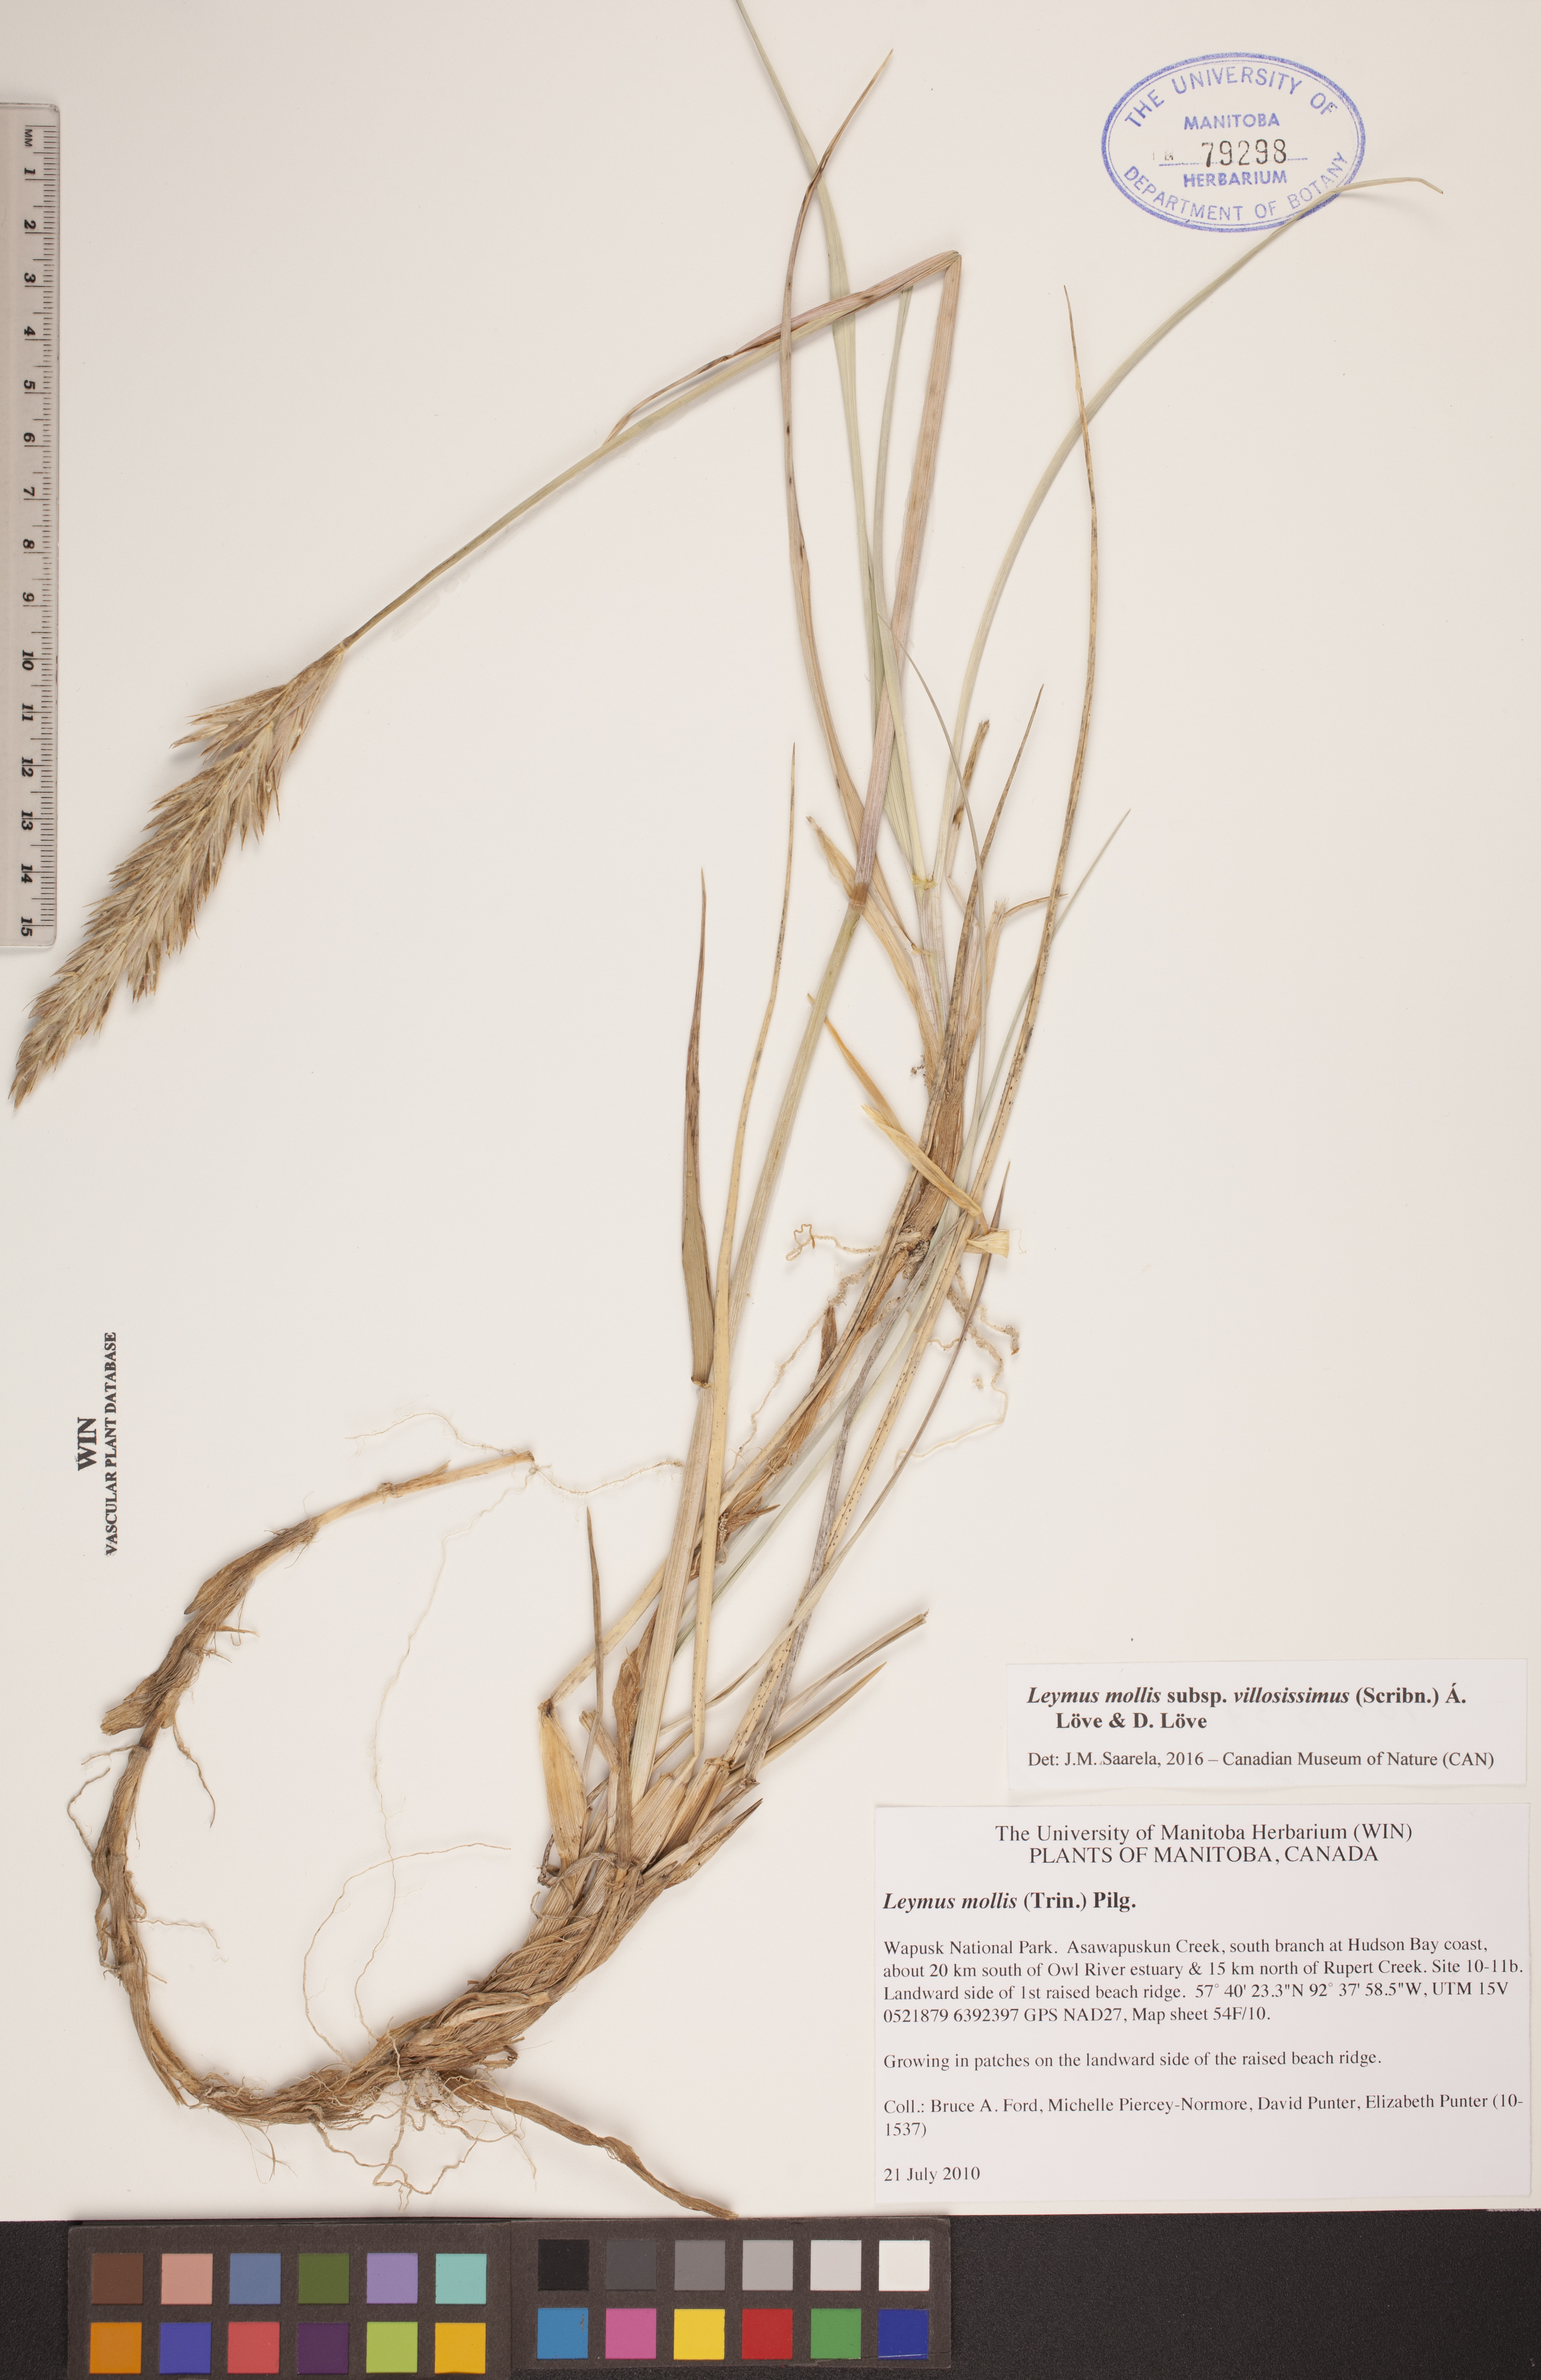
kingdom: Plantae
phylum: Tracheophyta
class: Liliopsida
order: Poales
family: Poaceae
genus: Leymus
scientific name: Leymus villosissimus
